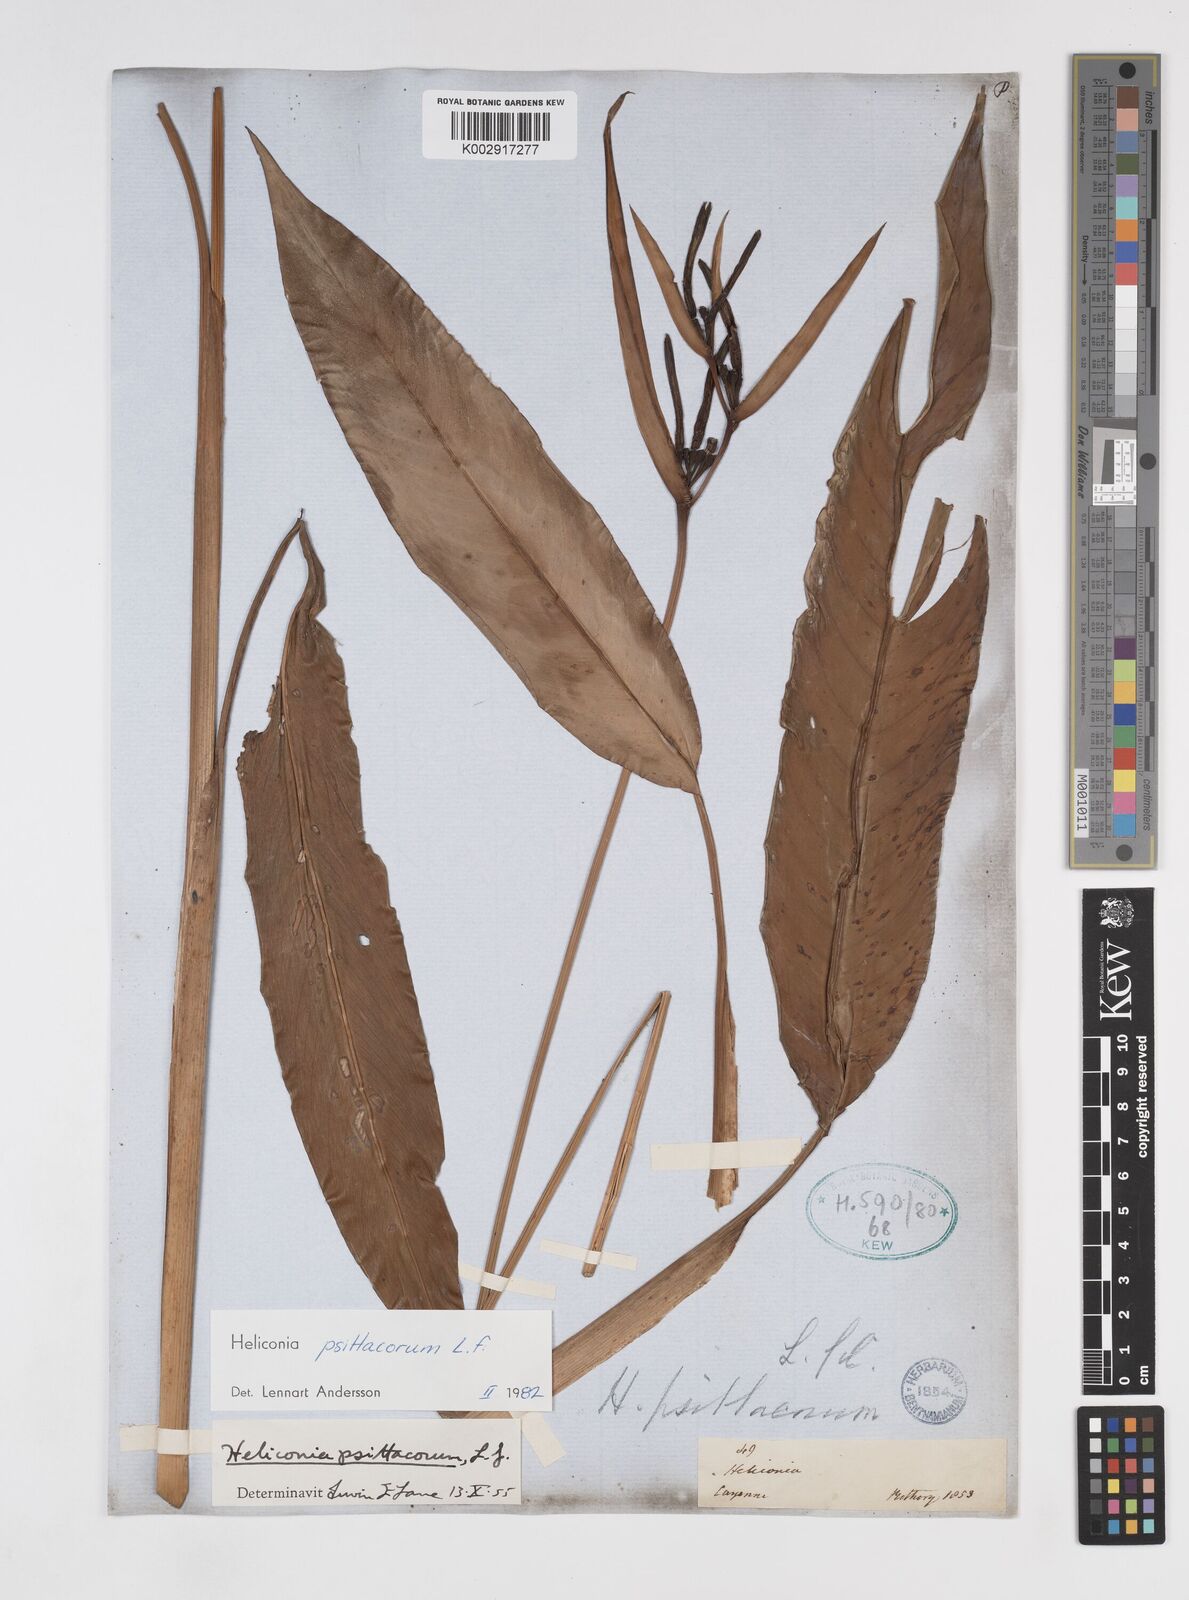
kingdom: Plantae
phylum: Tracheophyta
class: Liliopsida
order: Zingiberales
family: Heliconiaceae
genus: Heliconia
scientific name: Heliconia psittacorum
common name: Parrot's-flower
